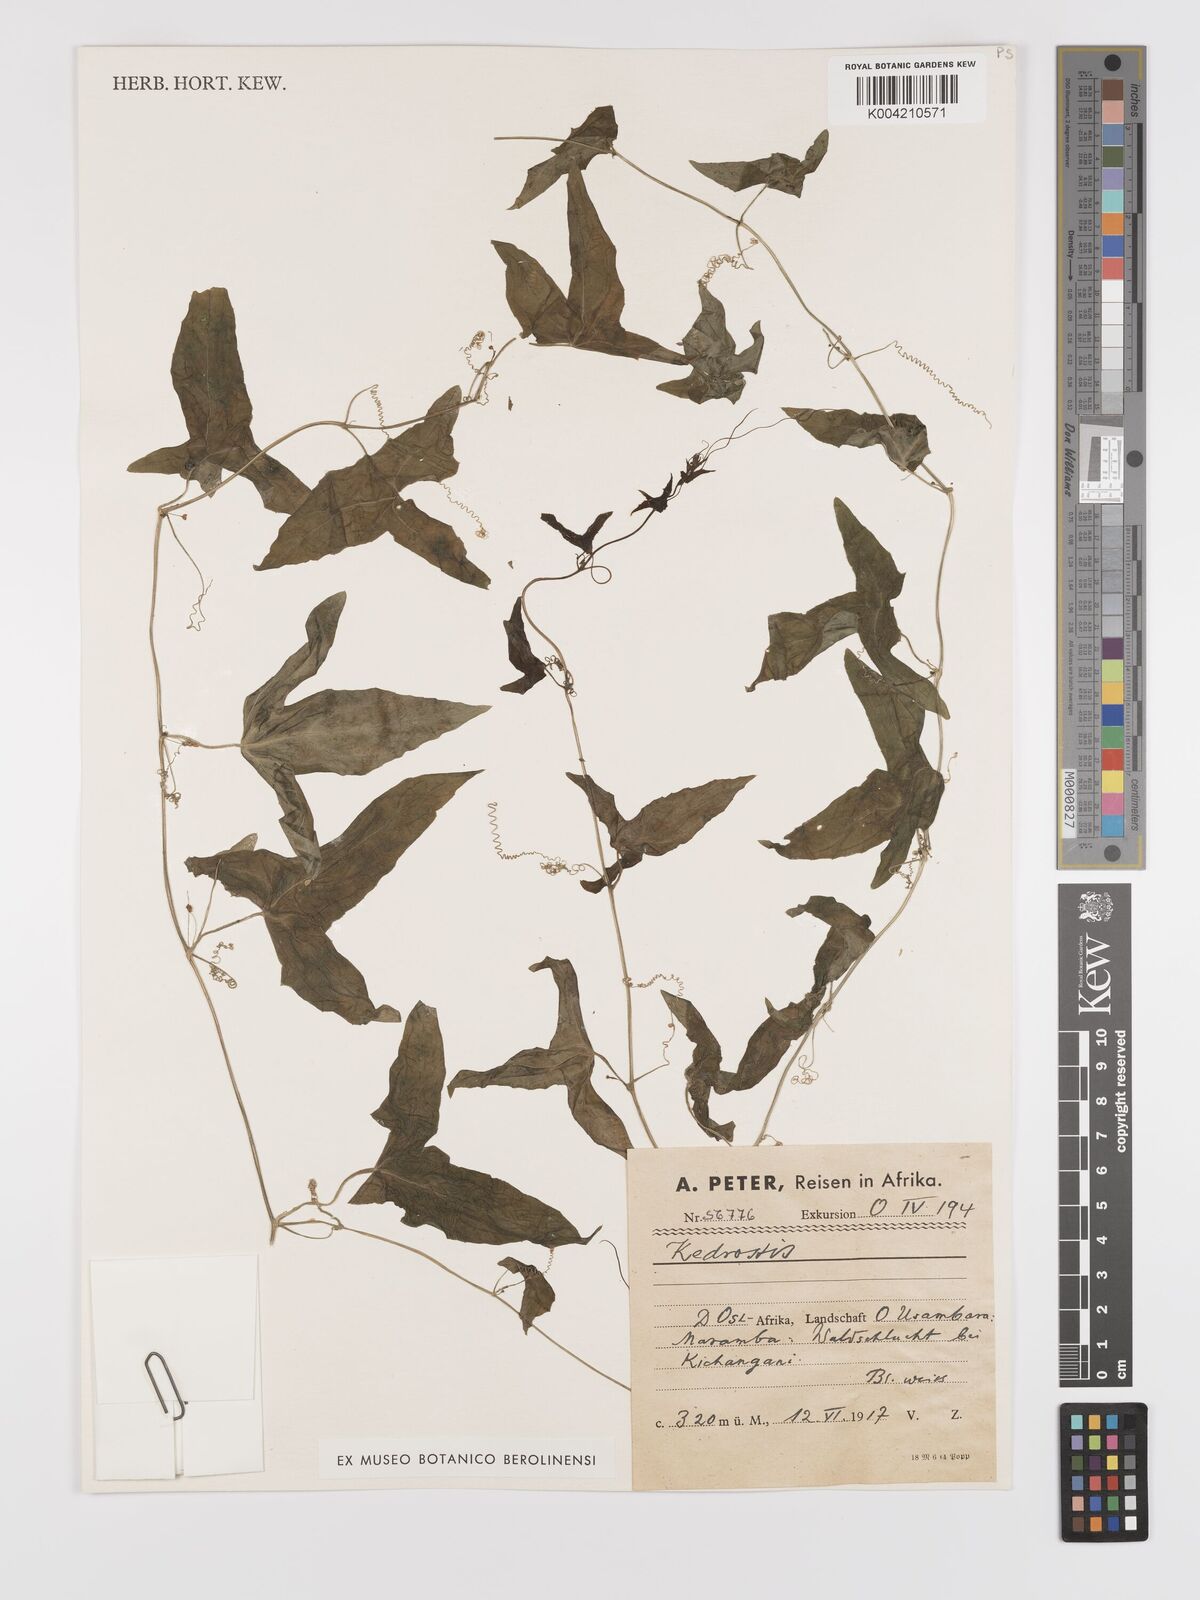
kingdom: Plantae
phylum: Tracheophyta
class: Magnoliopsida
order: Cucurbitales
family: Cucurbitaceae
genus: Zehneria
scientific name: Zehneria thwaitesii
